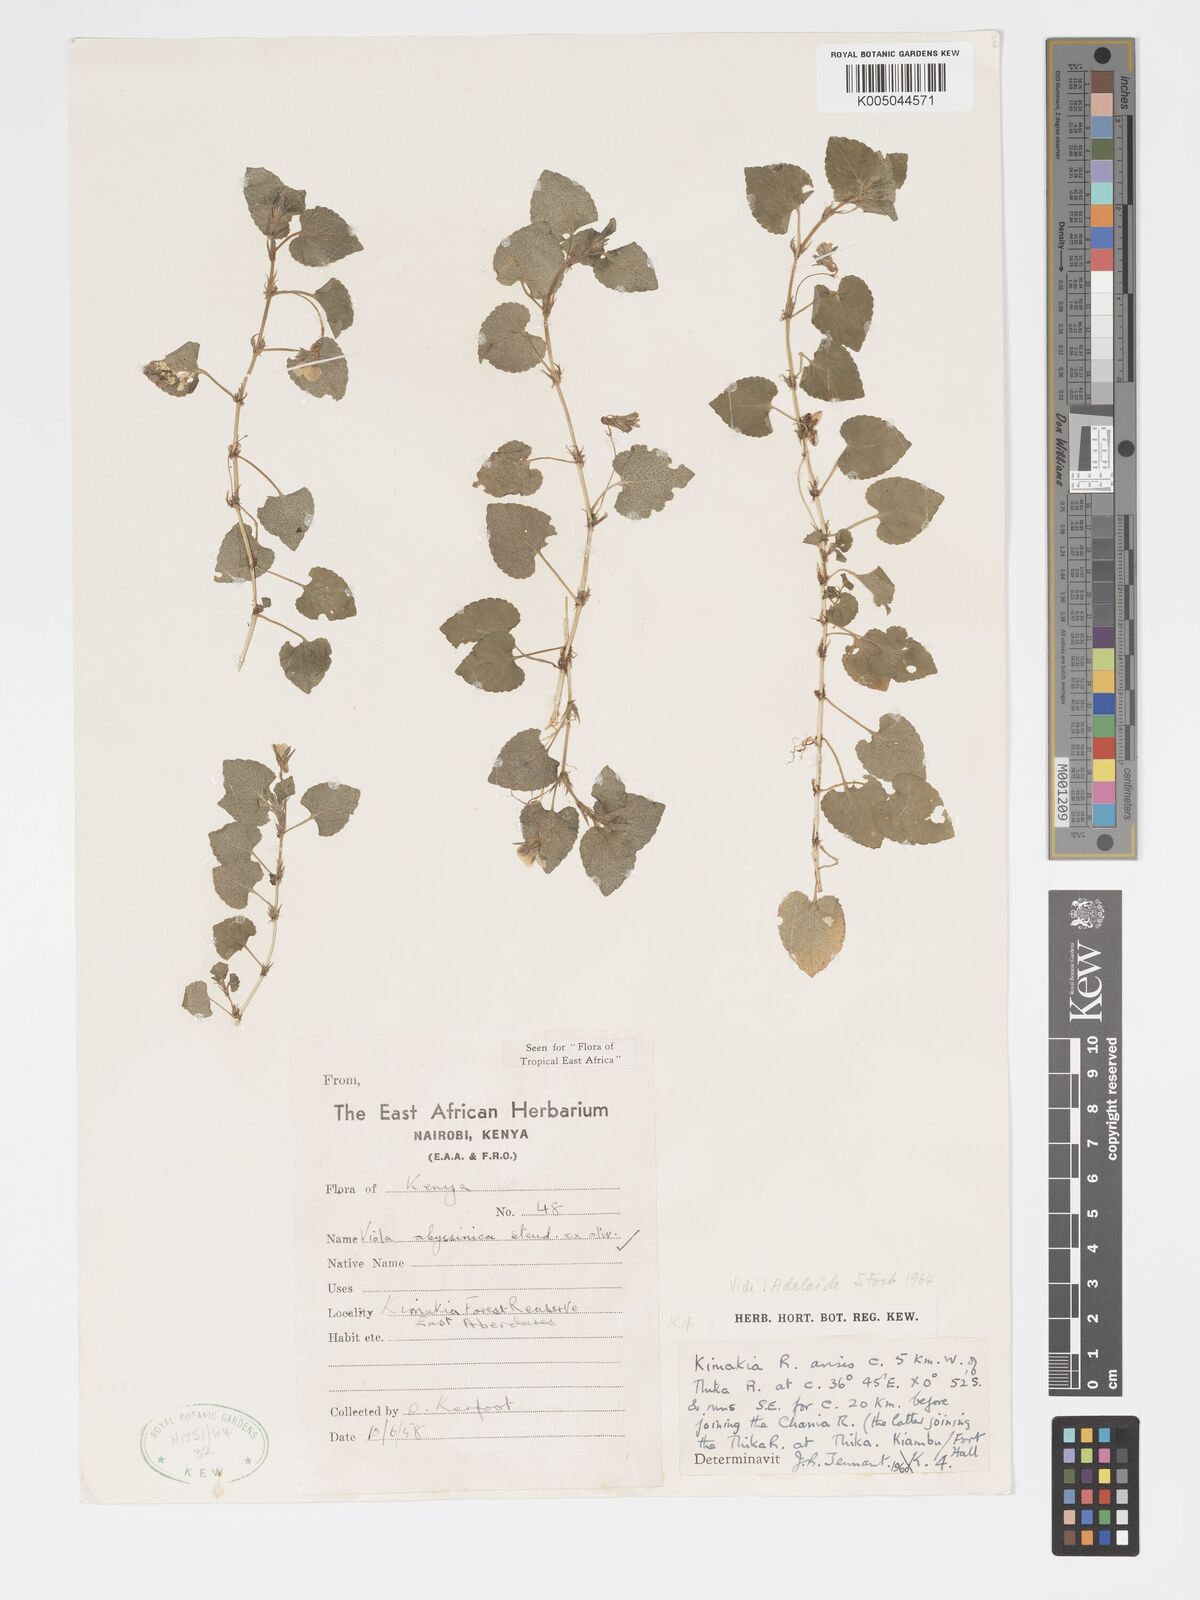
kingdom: Plantae
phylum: Tracheophyta
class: Magnoliopsida
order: Malpighiales
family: Violaceae
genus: Viola
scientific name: Viola abyssinica
